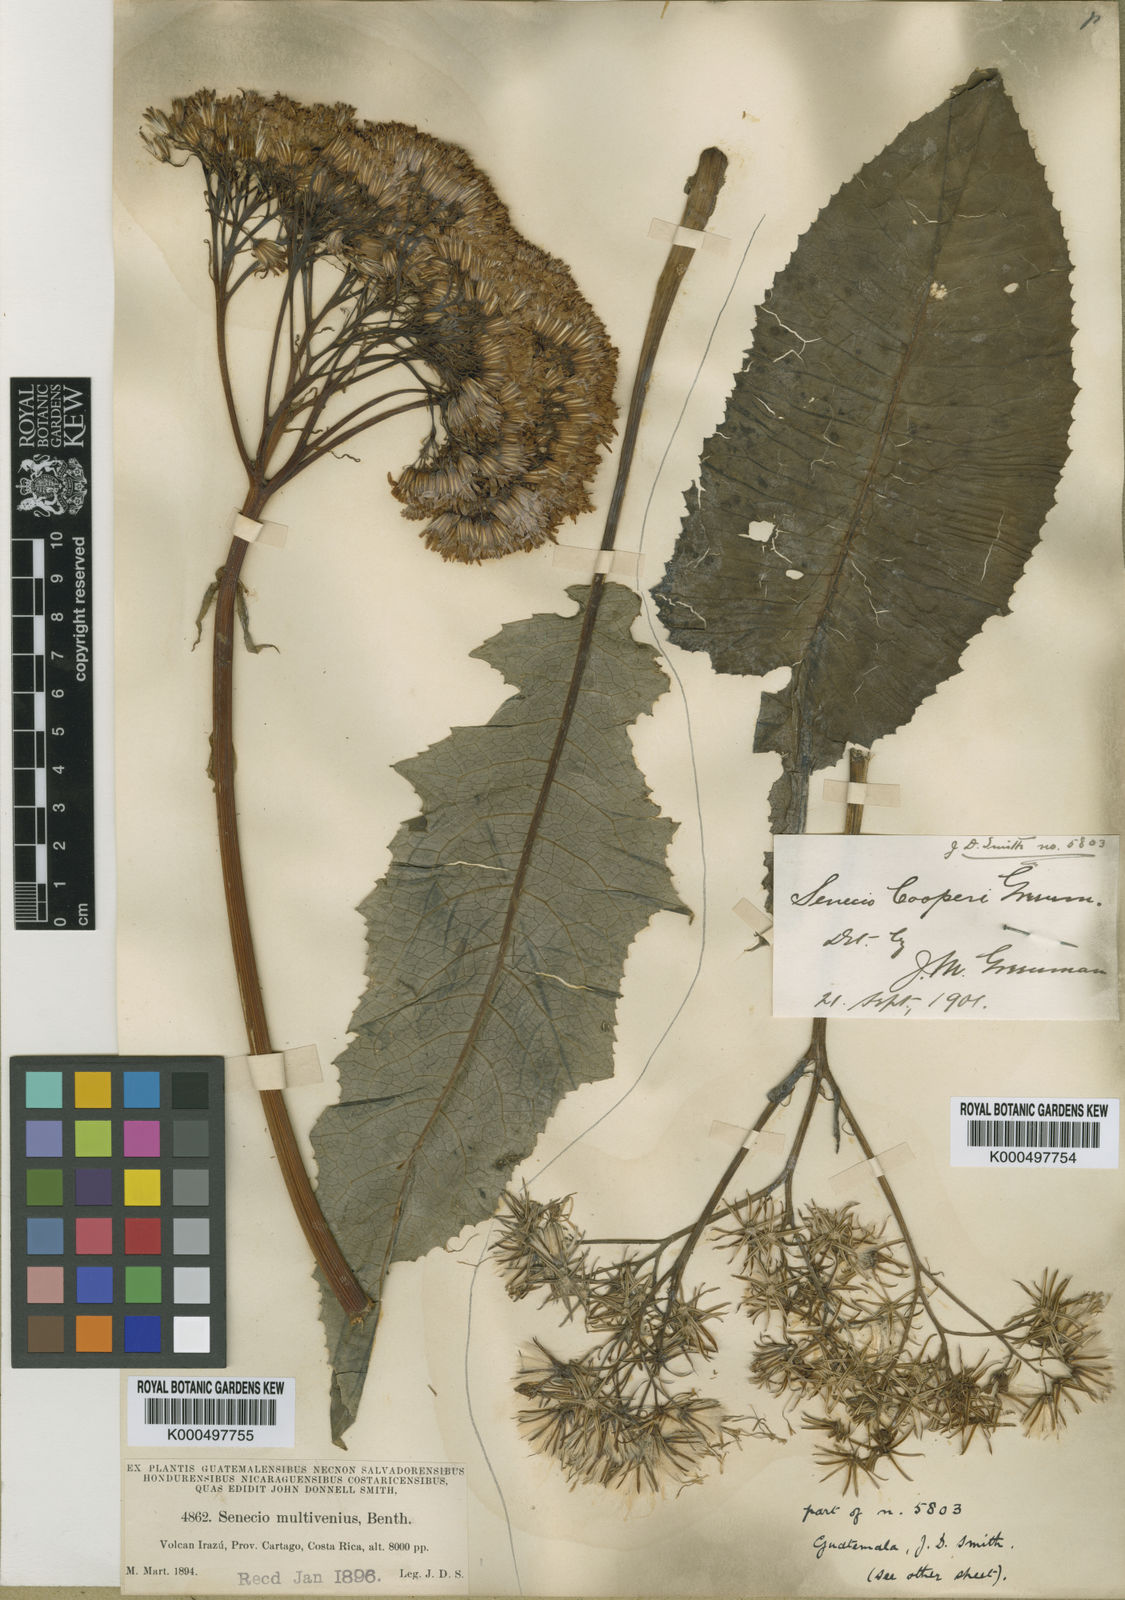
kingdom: Plantae
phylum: Tracheophyta
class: Magnoliopsida
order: Asterales
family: Asteraceae
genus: Jessea
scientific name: Jessea cooperi
